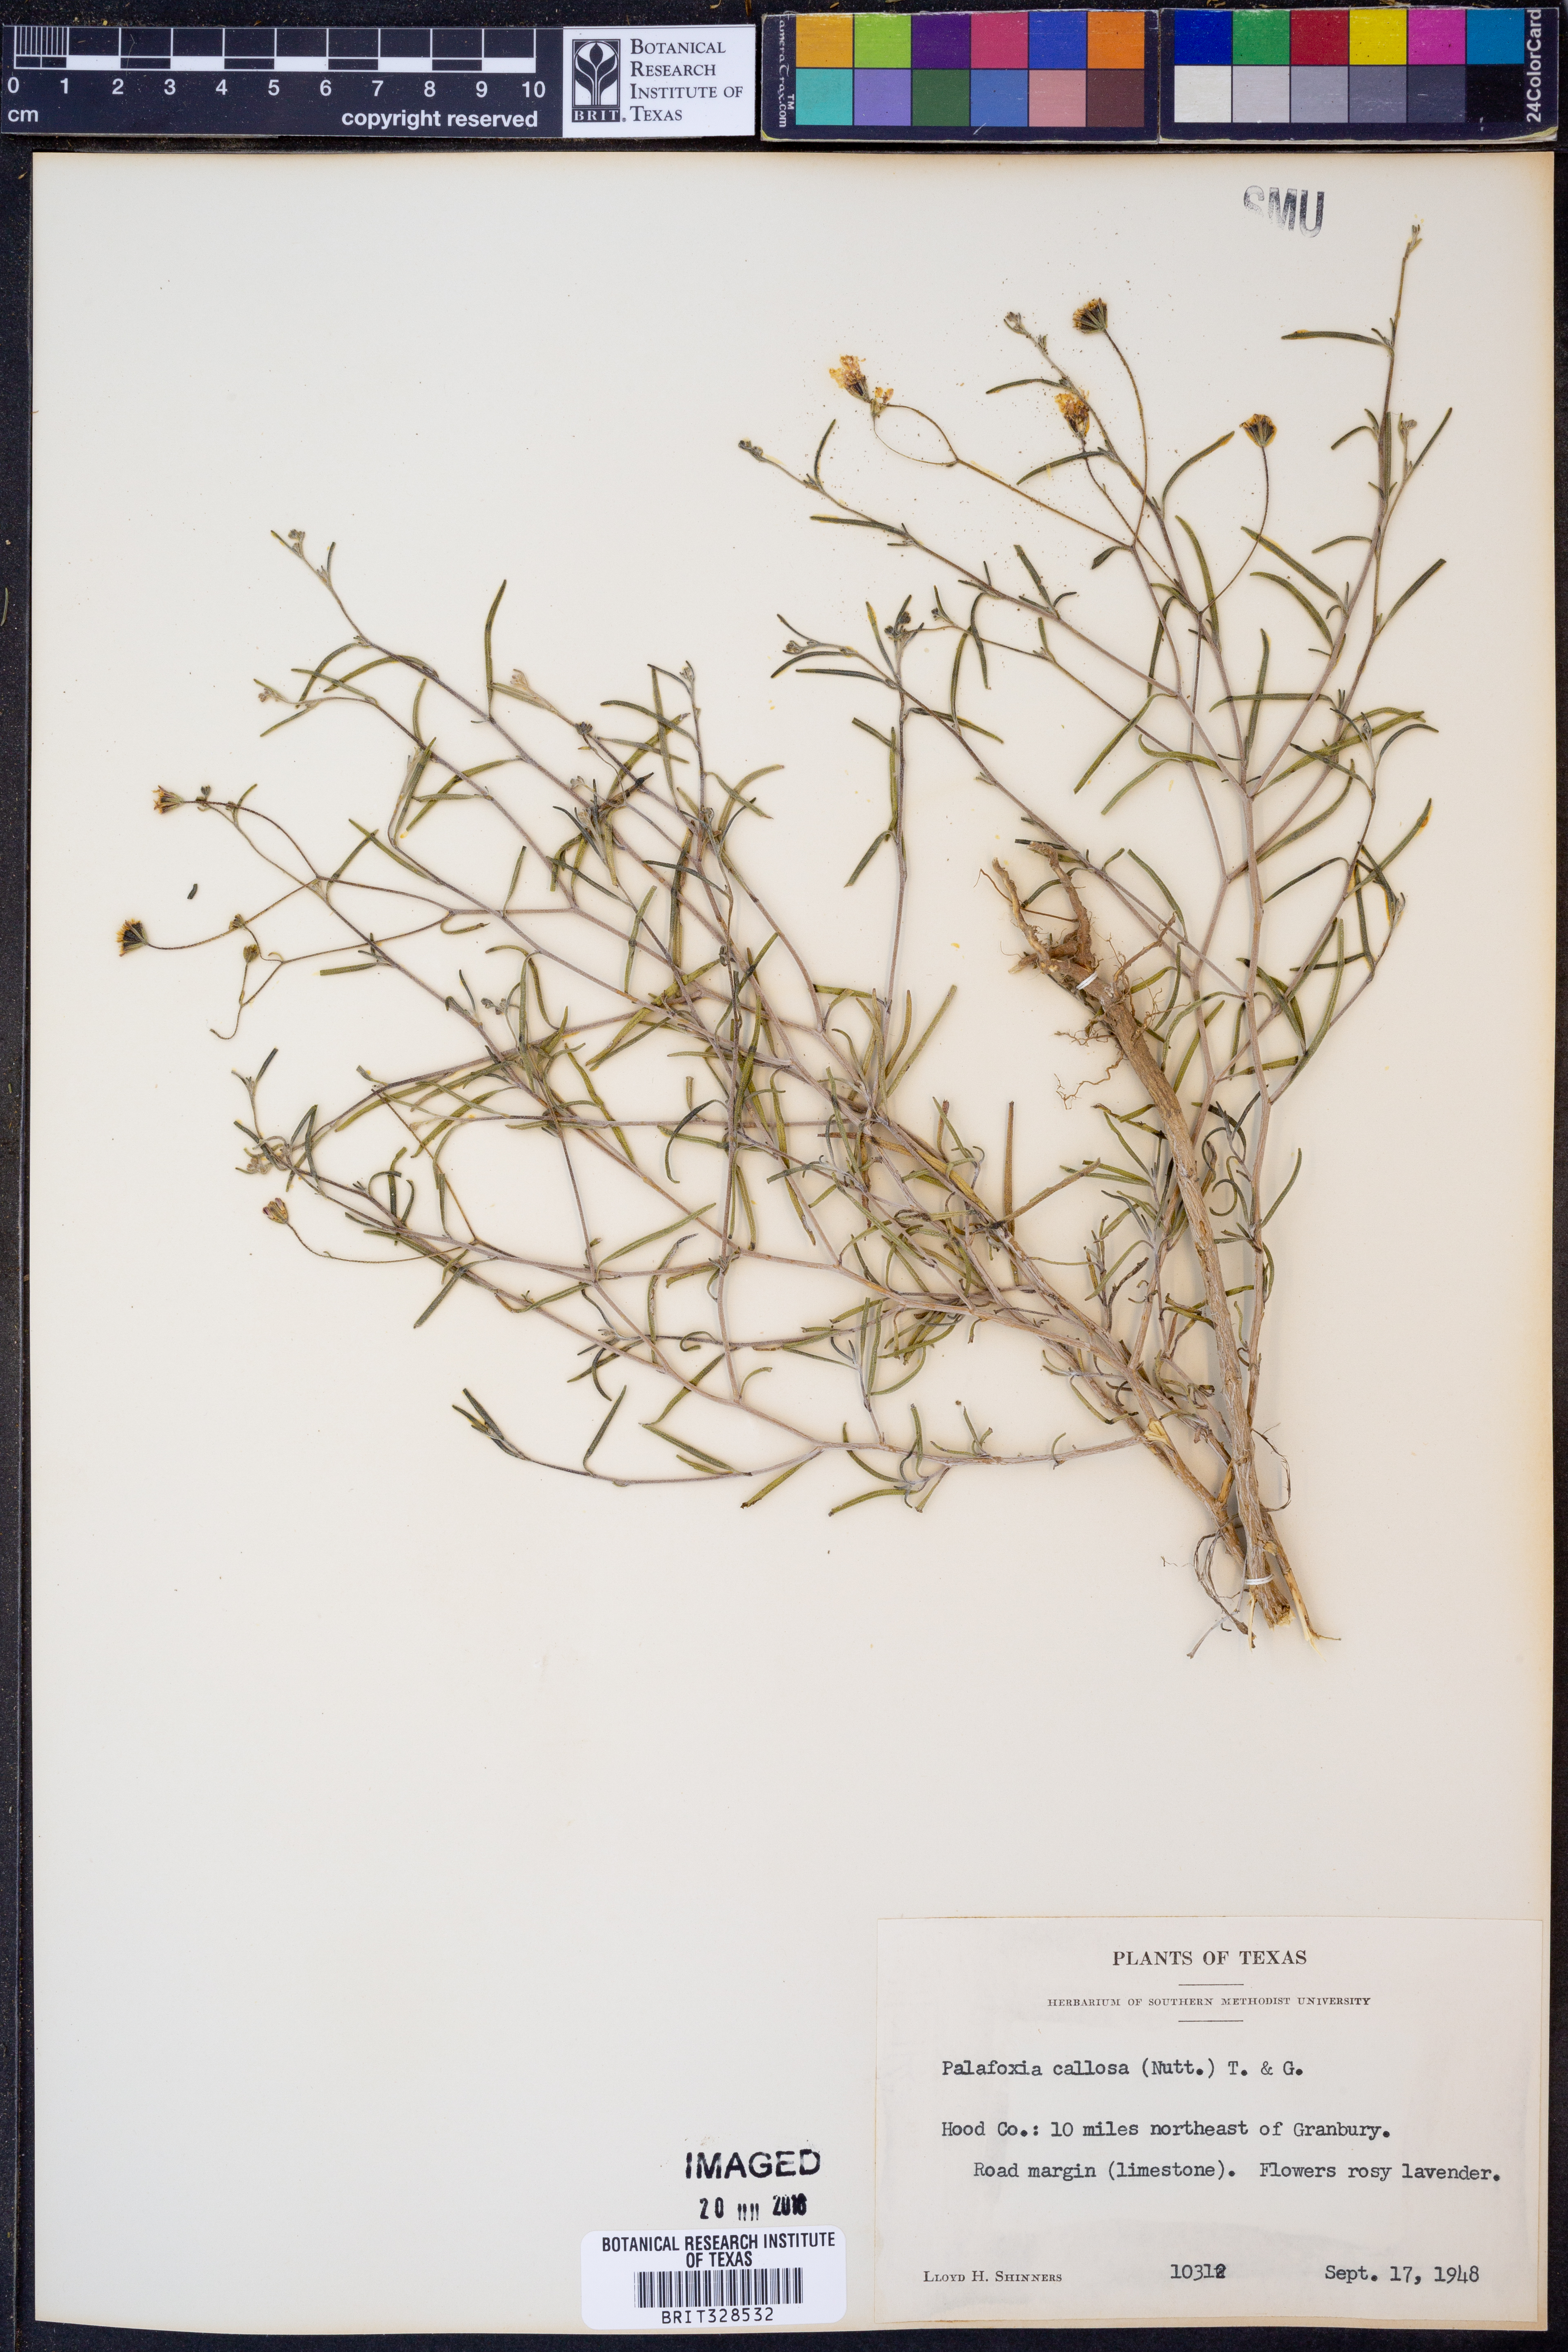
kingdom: Plantae
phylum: Tracheophyta
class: Magnoliopsida
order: Asterales
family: Asteraceae
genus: Palafoxia
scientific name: Palafoxia callosa
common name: Small palafox
